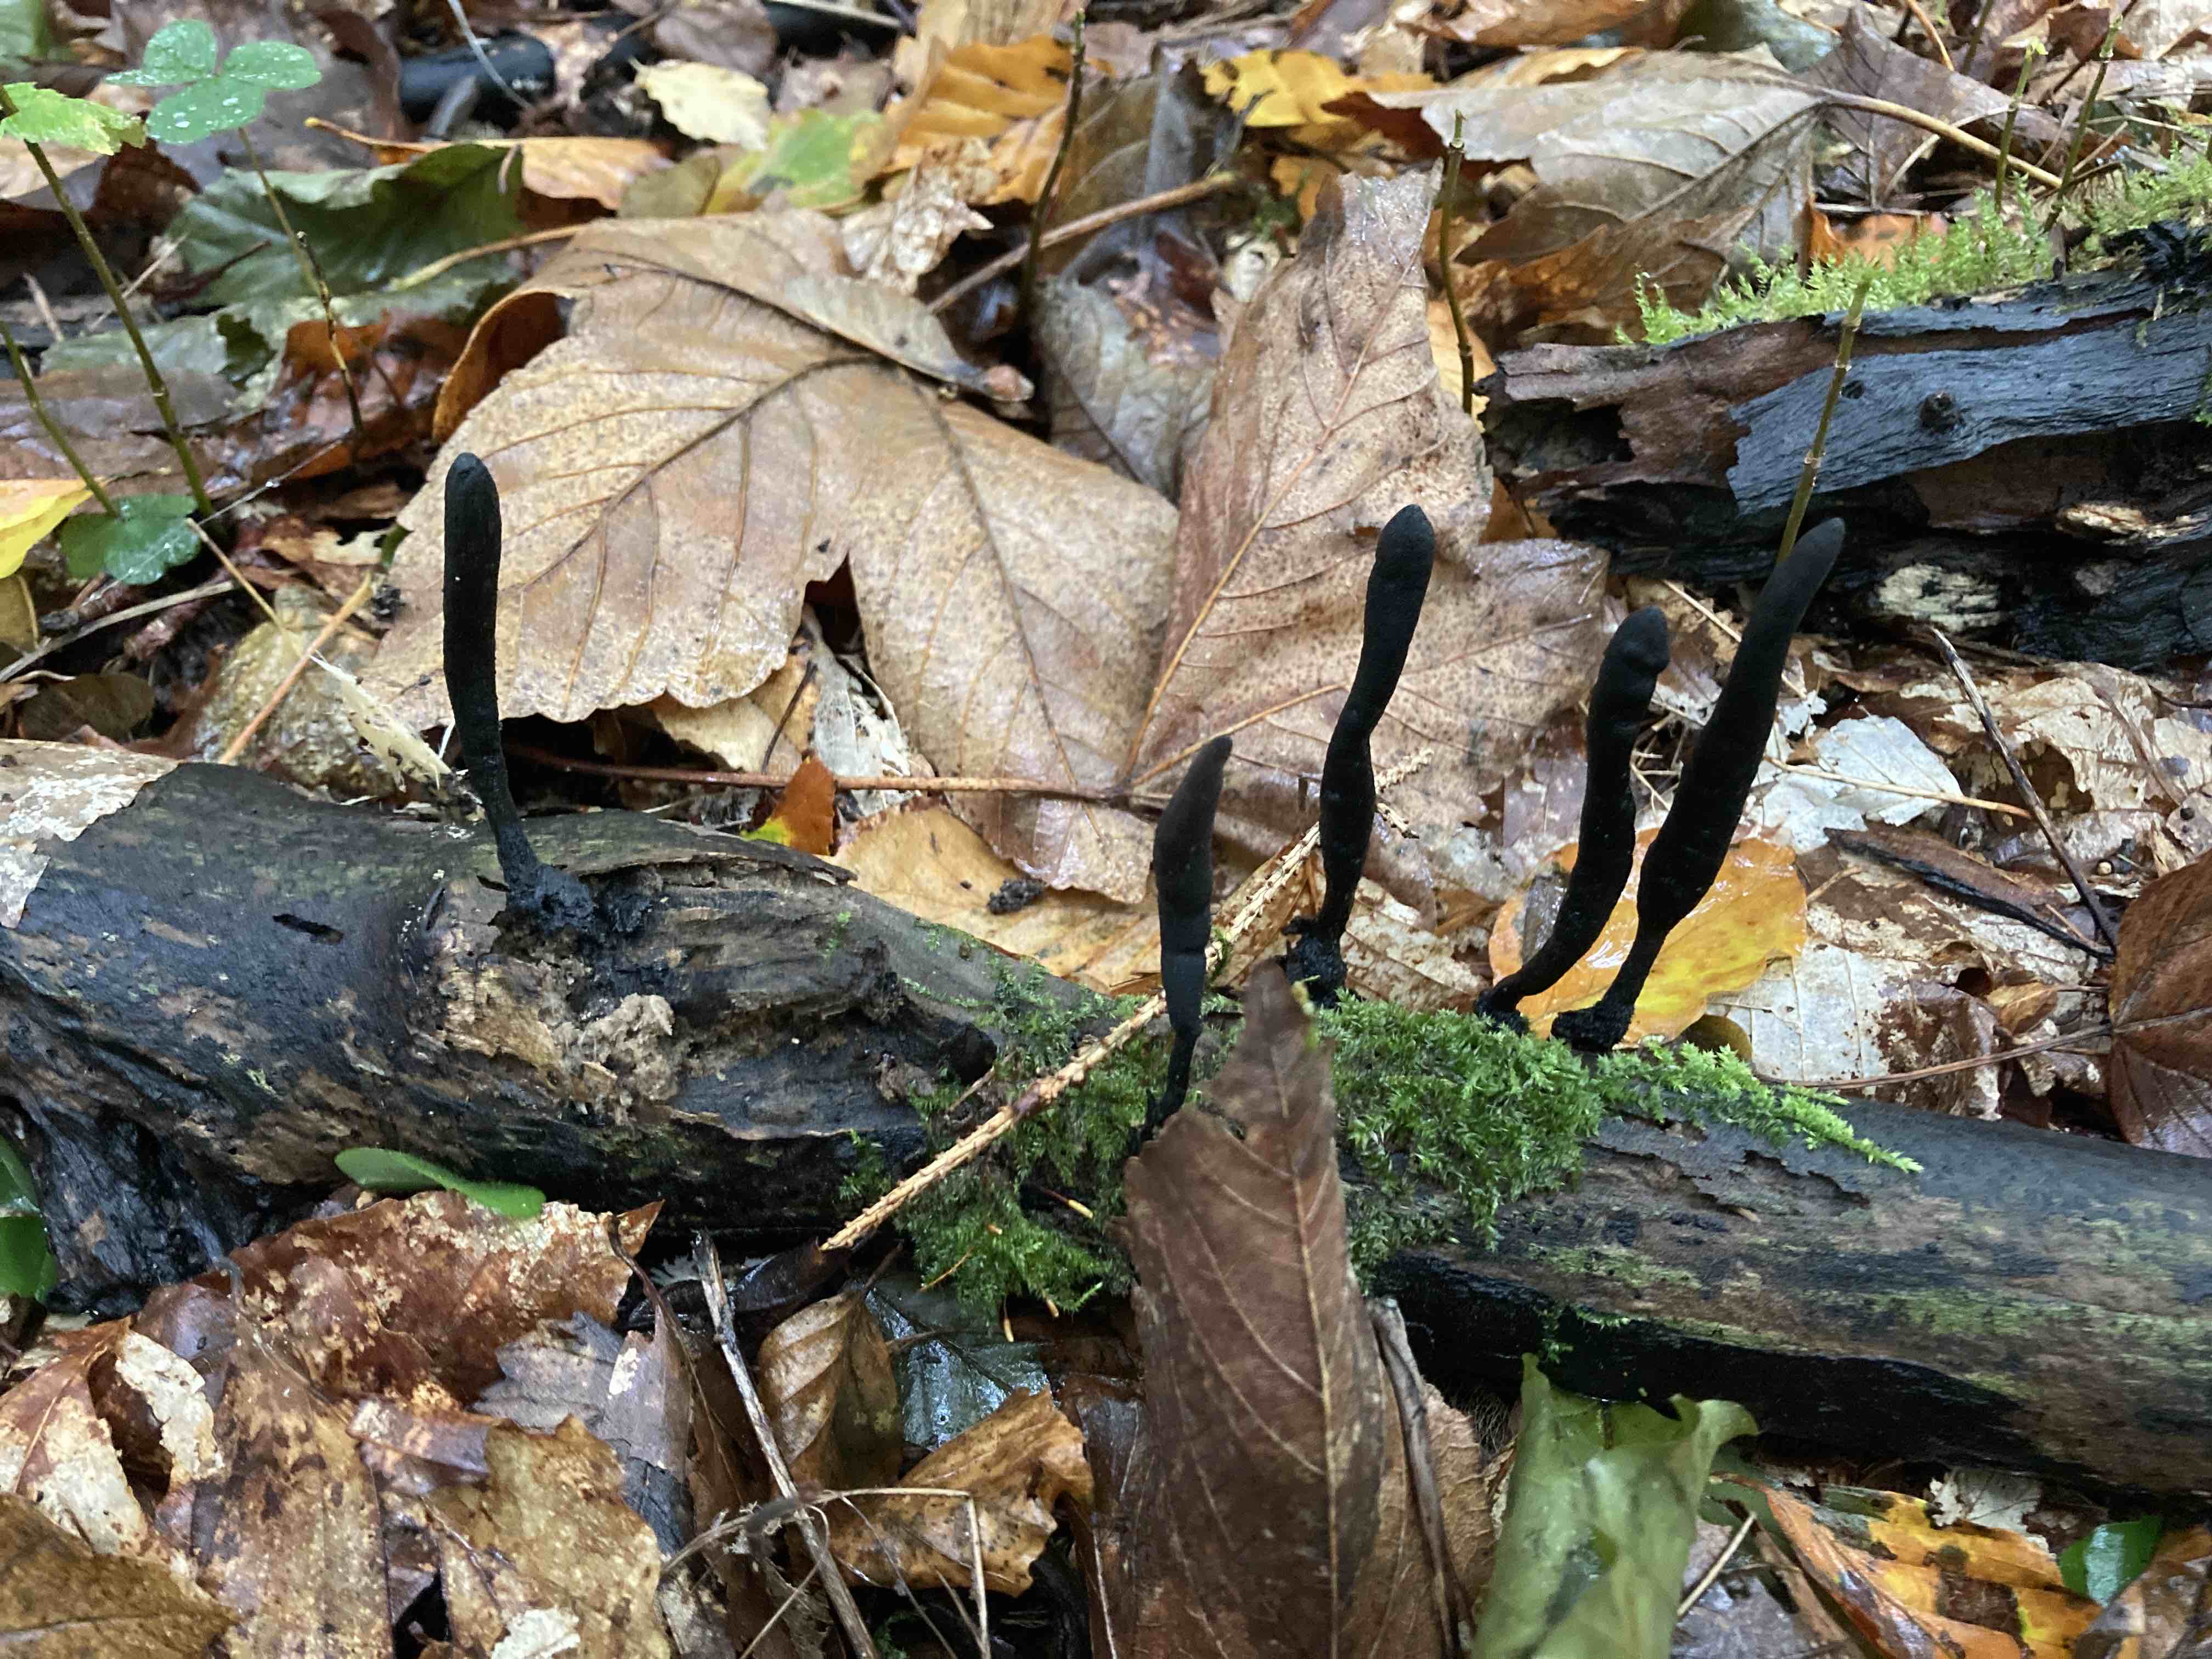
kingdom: Fungi
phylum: Ascomycota
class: Sordariomycetes
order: Xylariales
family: Xylariaceae
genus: Xylaria
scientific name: Xylaria longipes
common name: slank stødsvamp
